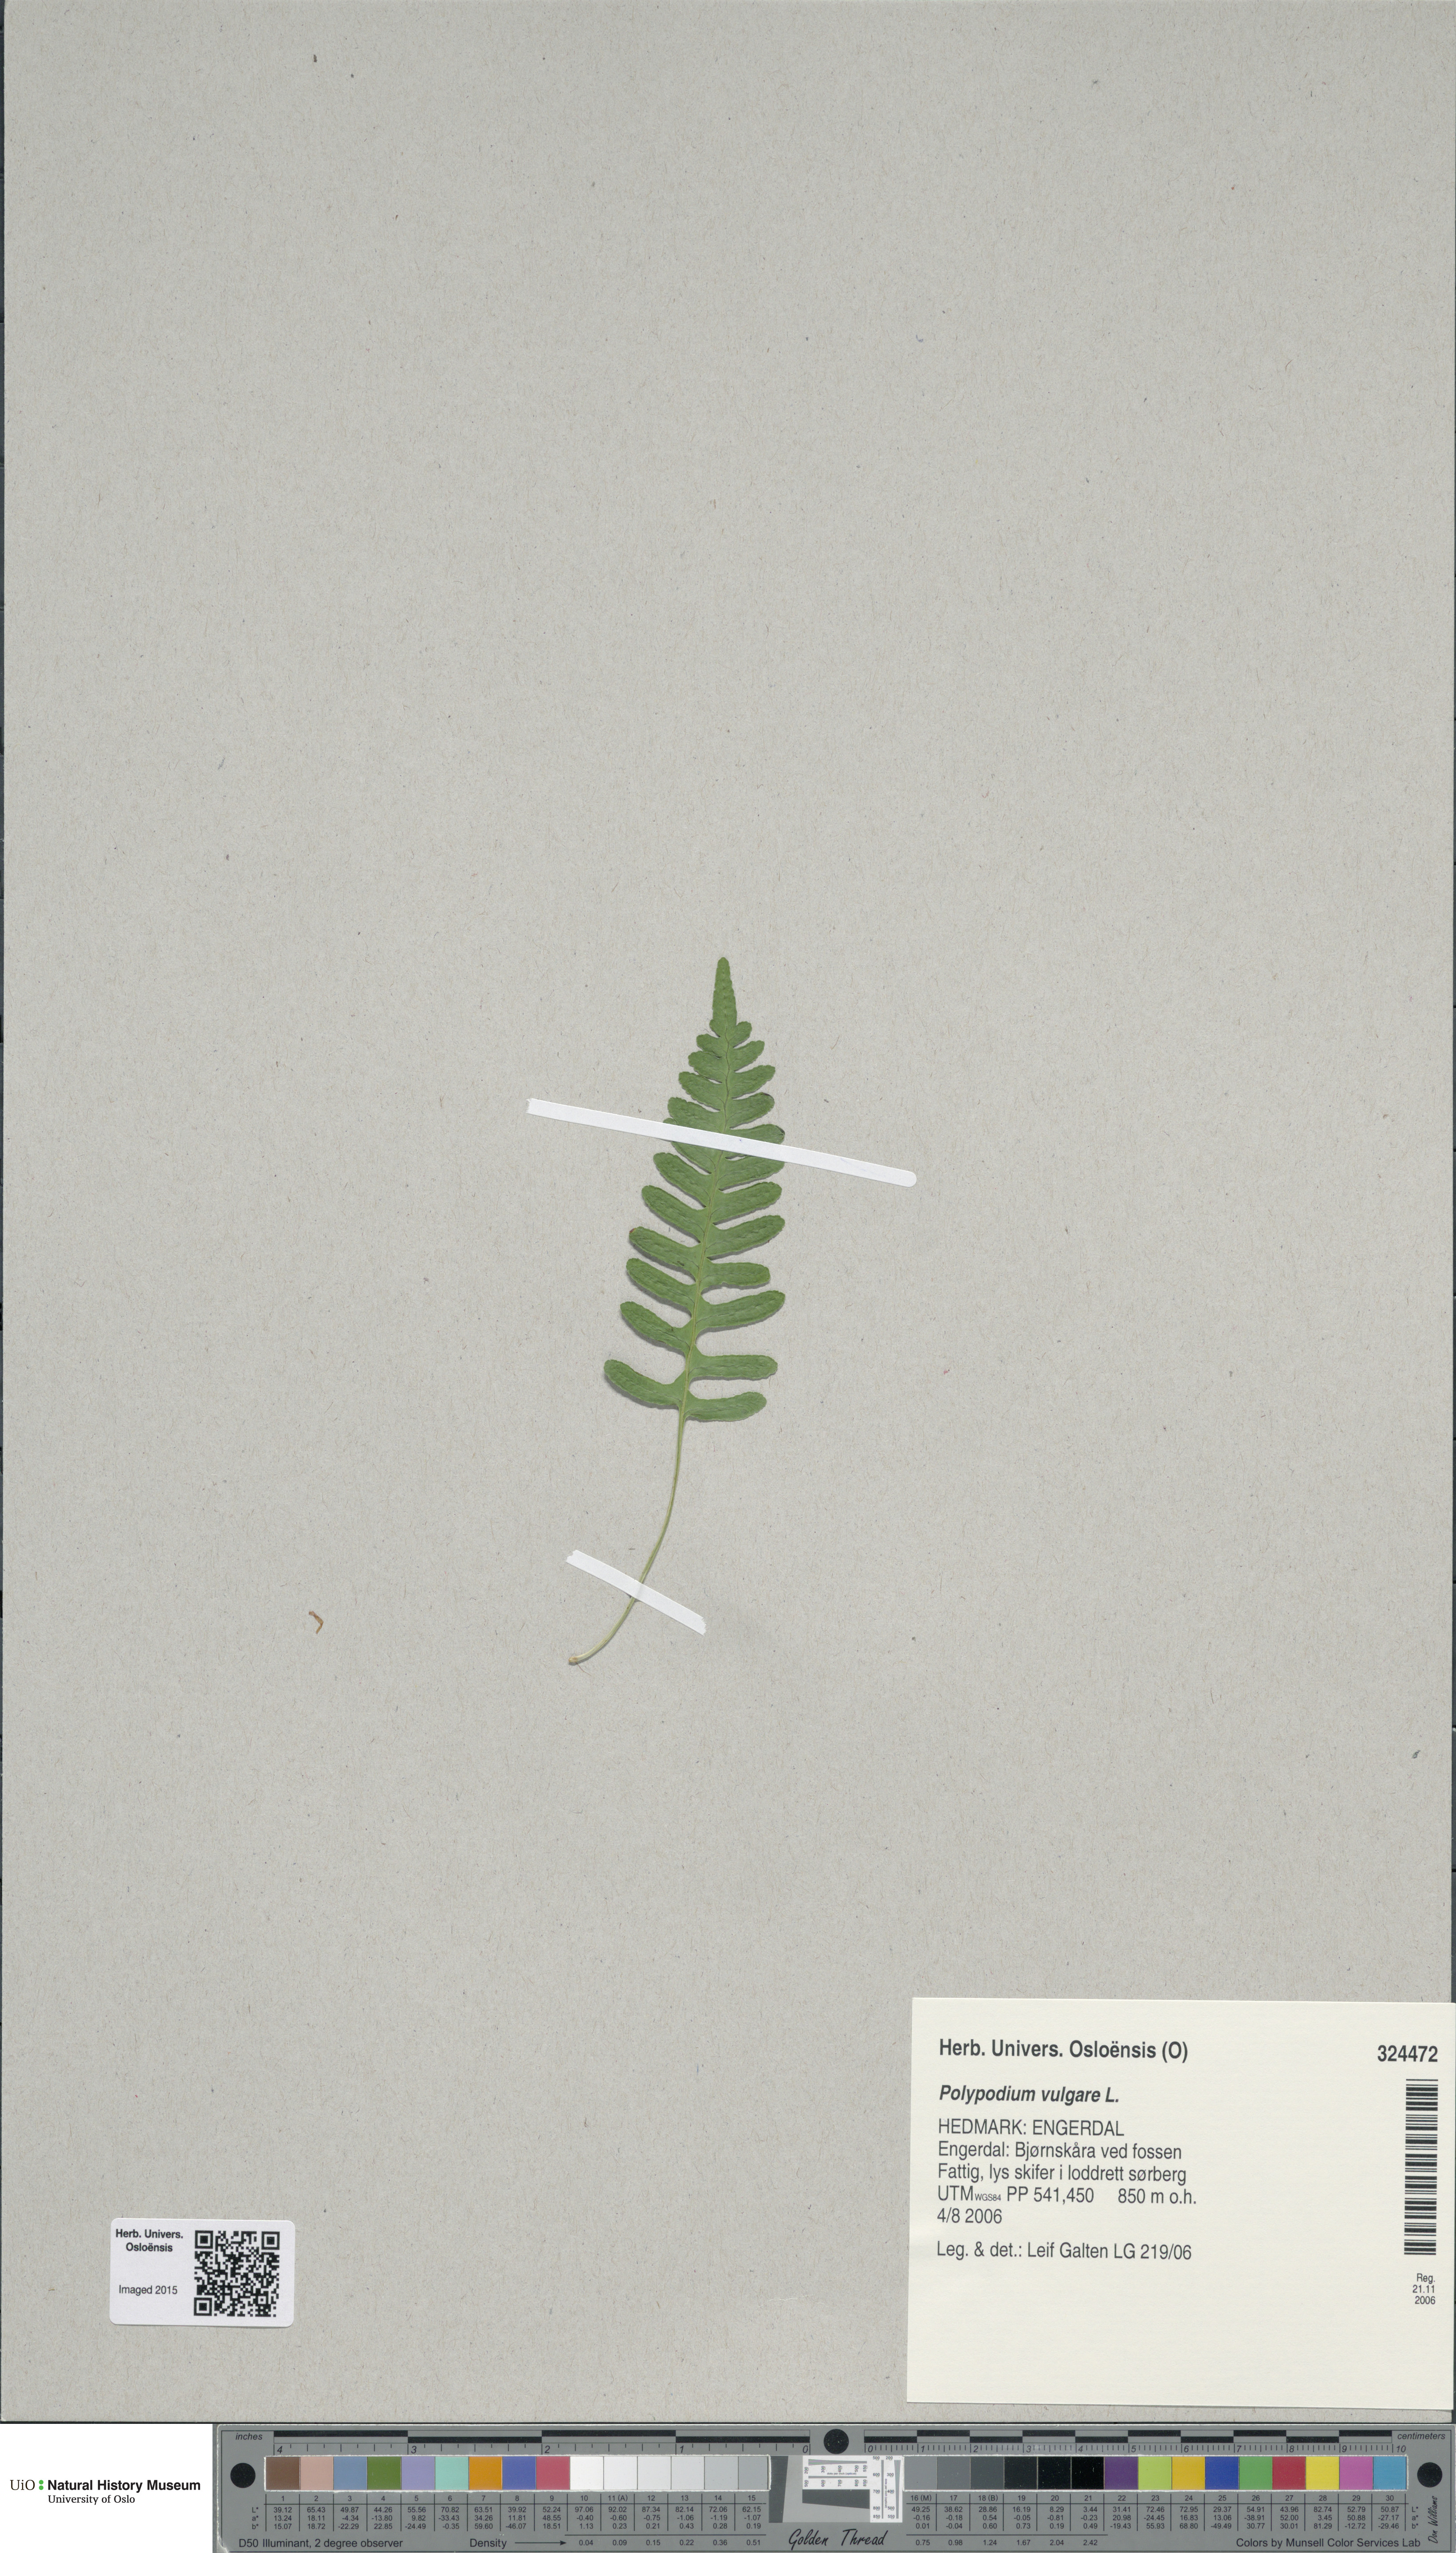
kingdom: Plantae
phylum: Tracheophyta
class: Polypodiopsida
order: Polypodiales
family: Polypodiaceae
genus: Polypodium
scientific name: Polypodium vulgare
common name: Common polypody
